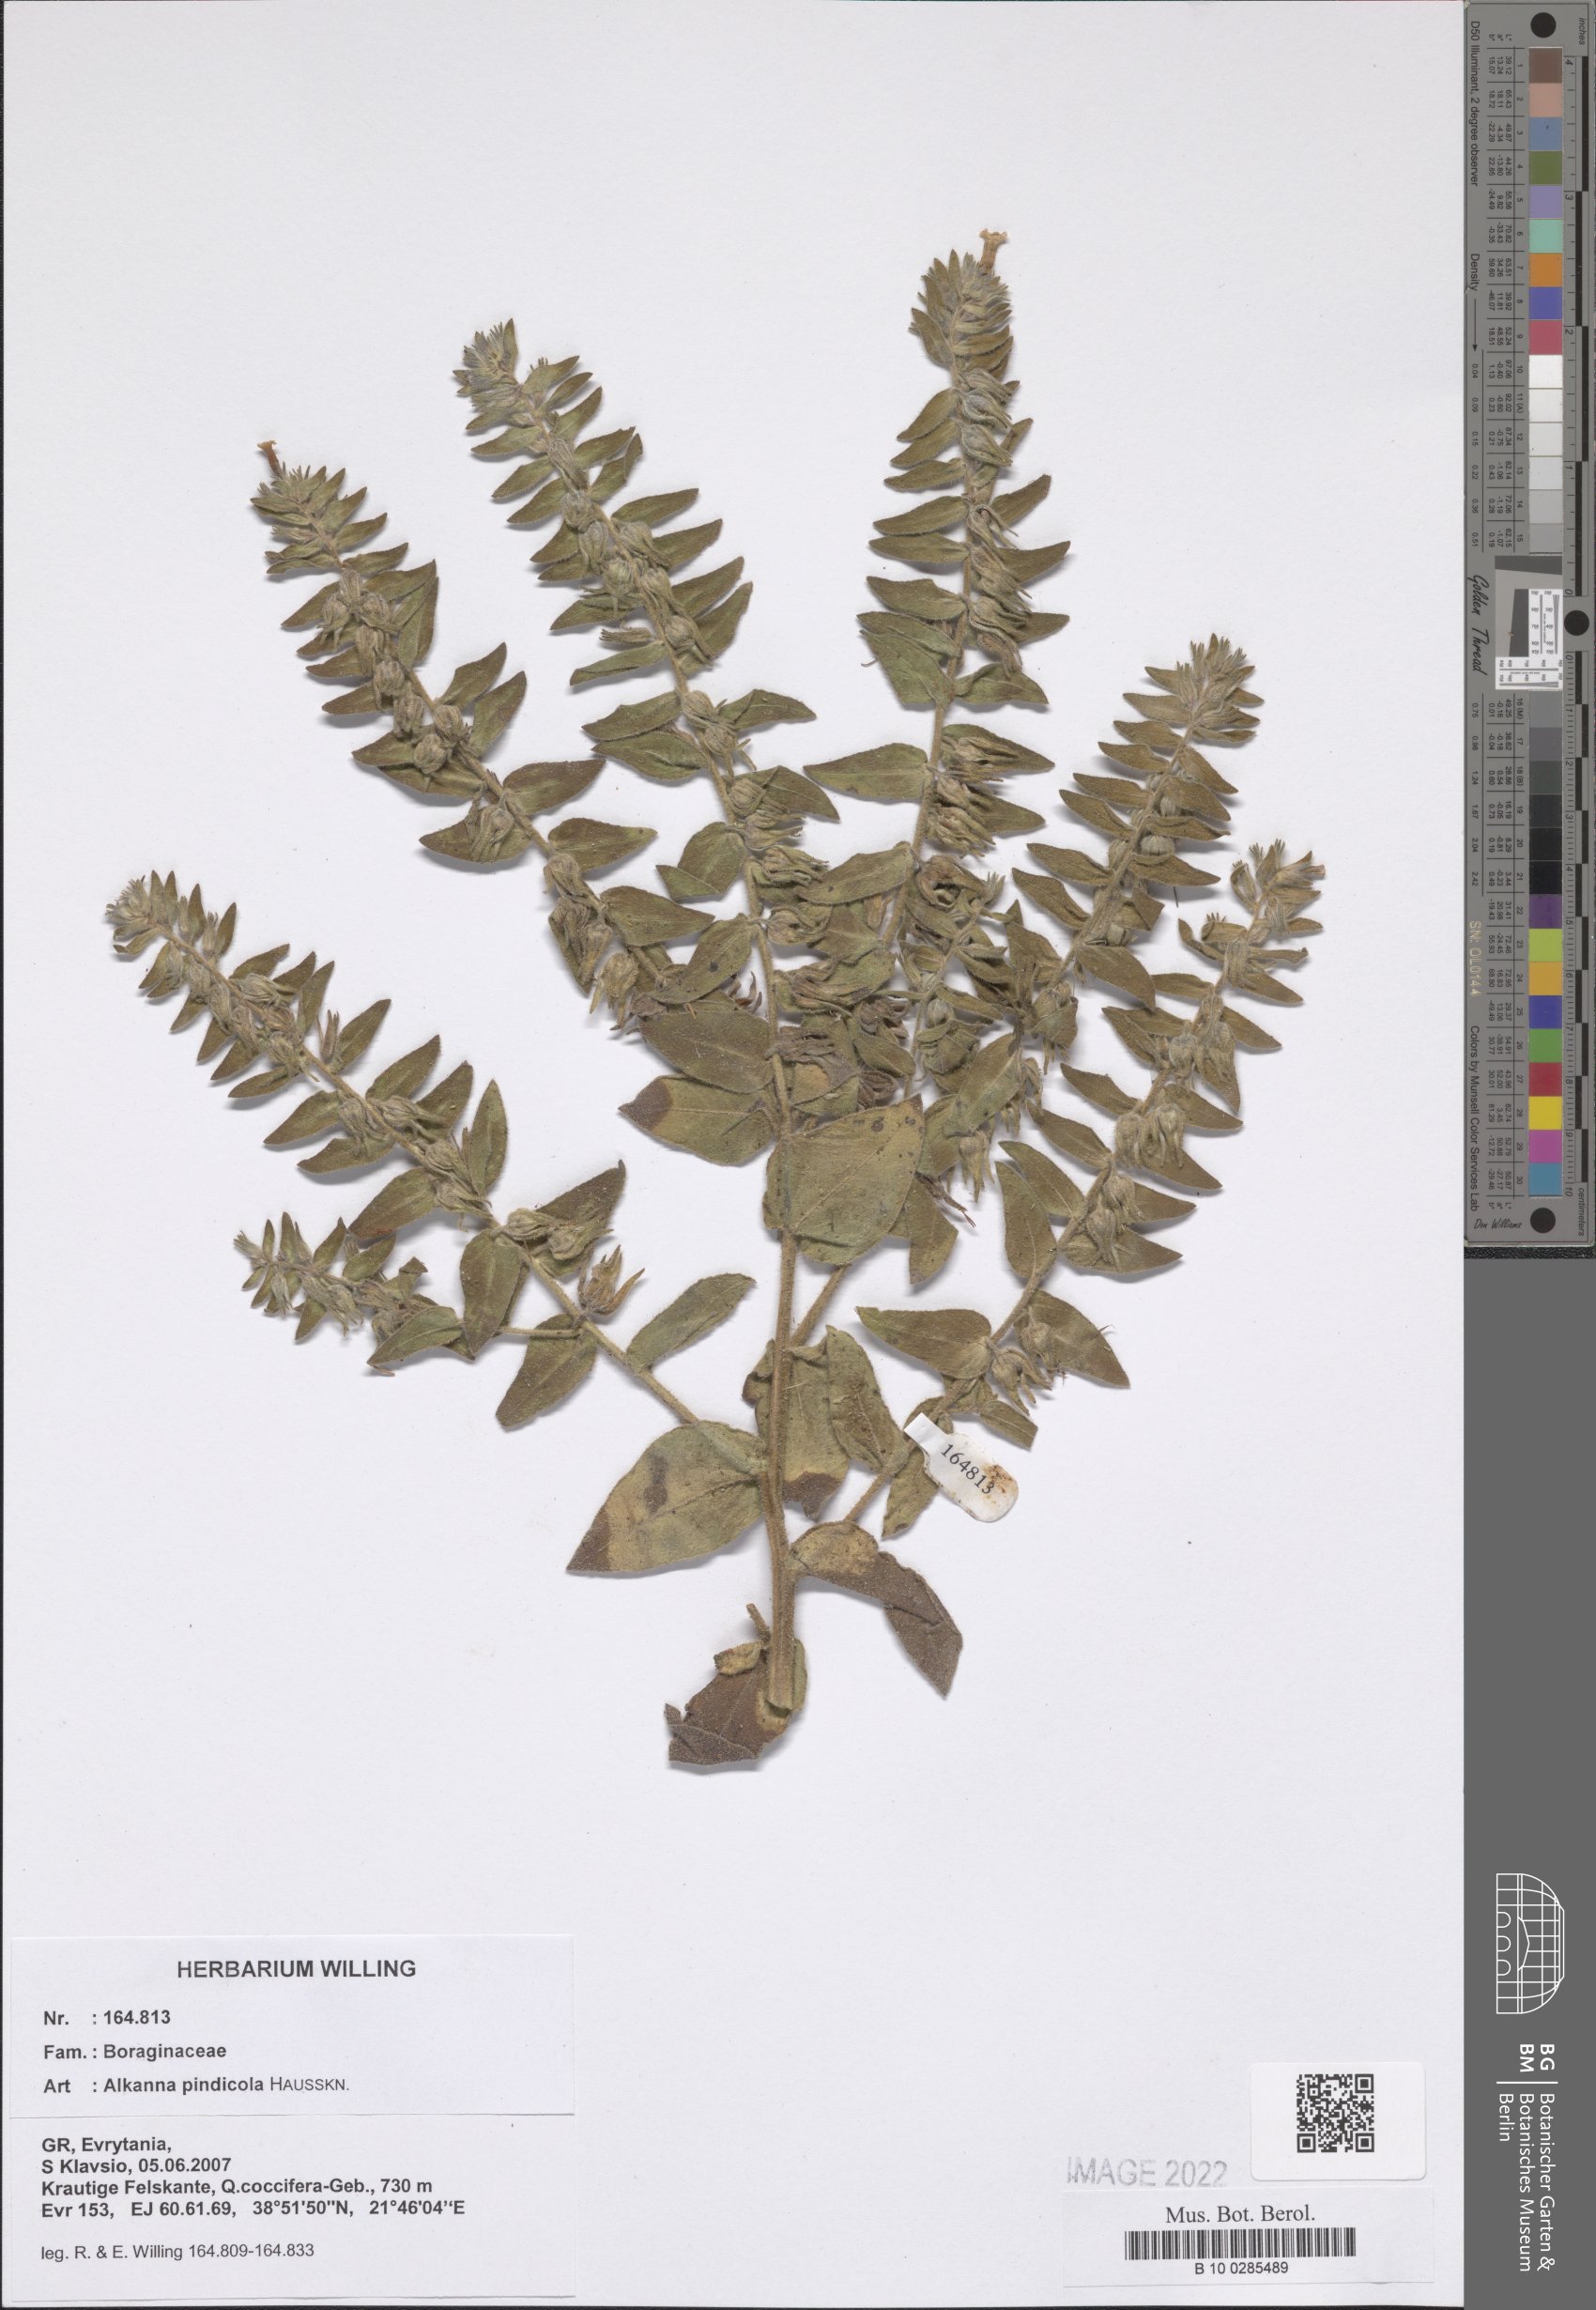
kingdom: Plantae
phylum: Tracheophyta
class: Magnoliopsida
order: Boraginales
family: Boraginaceae
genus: Alkanna
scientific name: Alkanna pindicola
